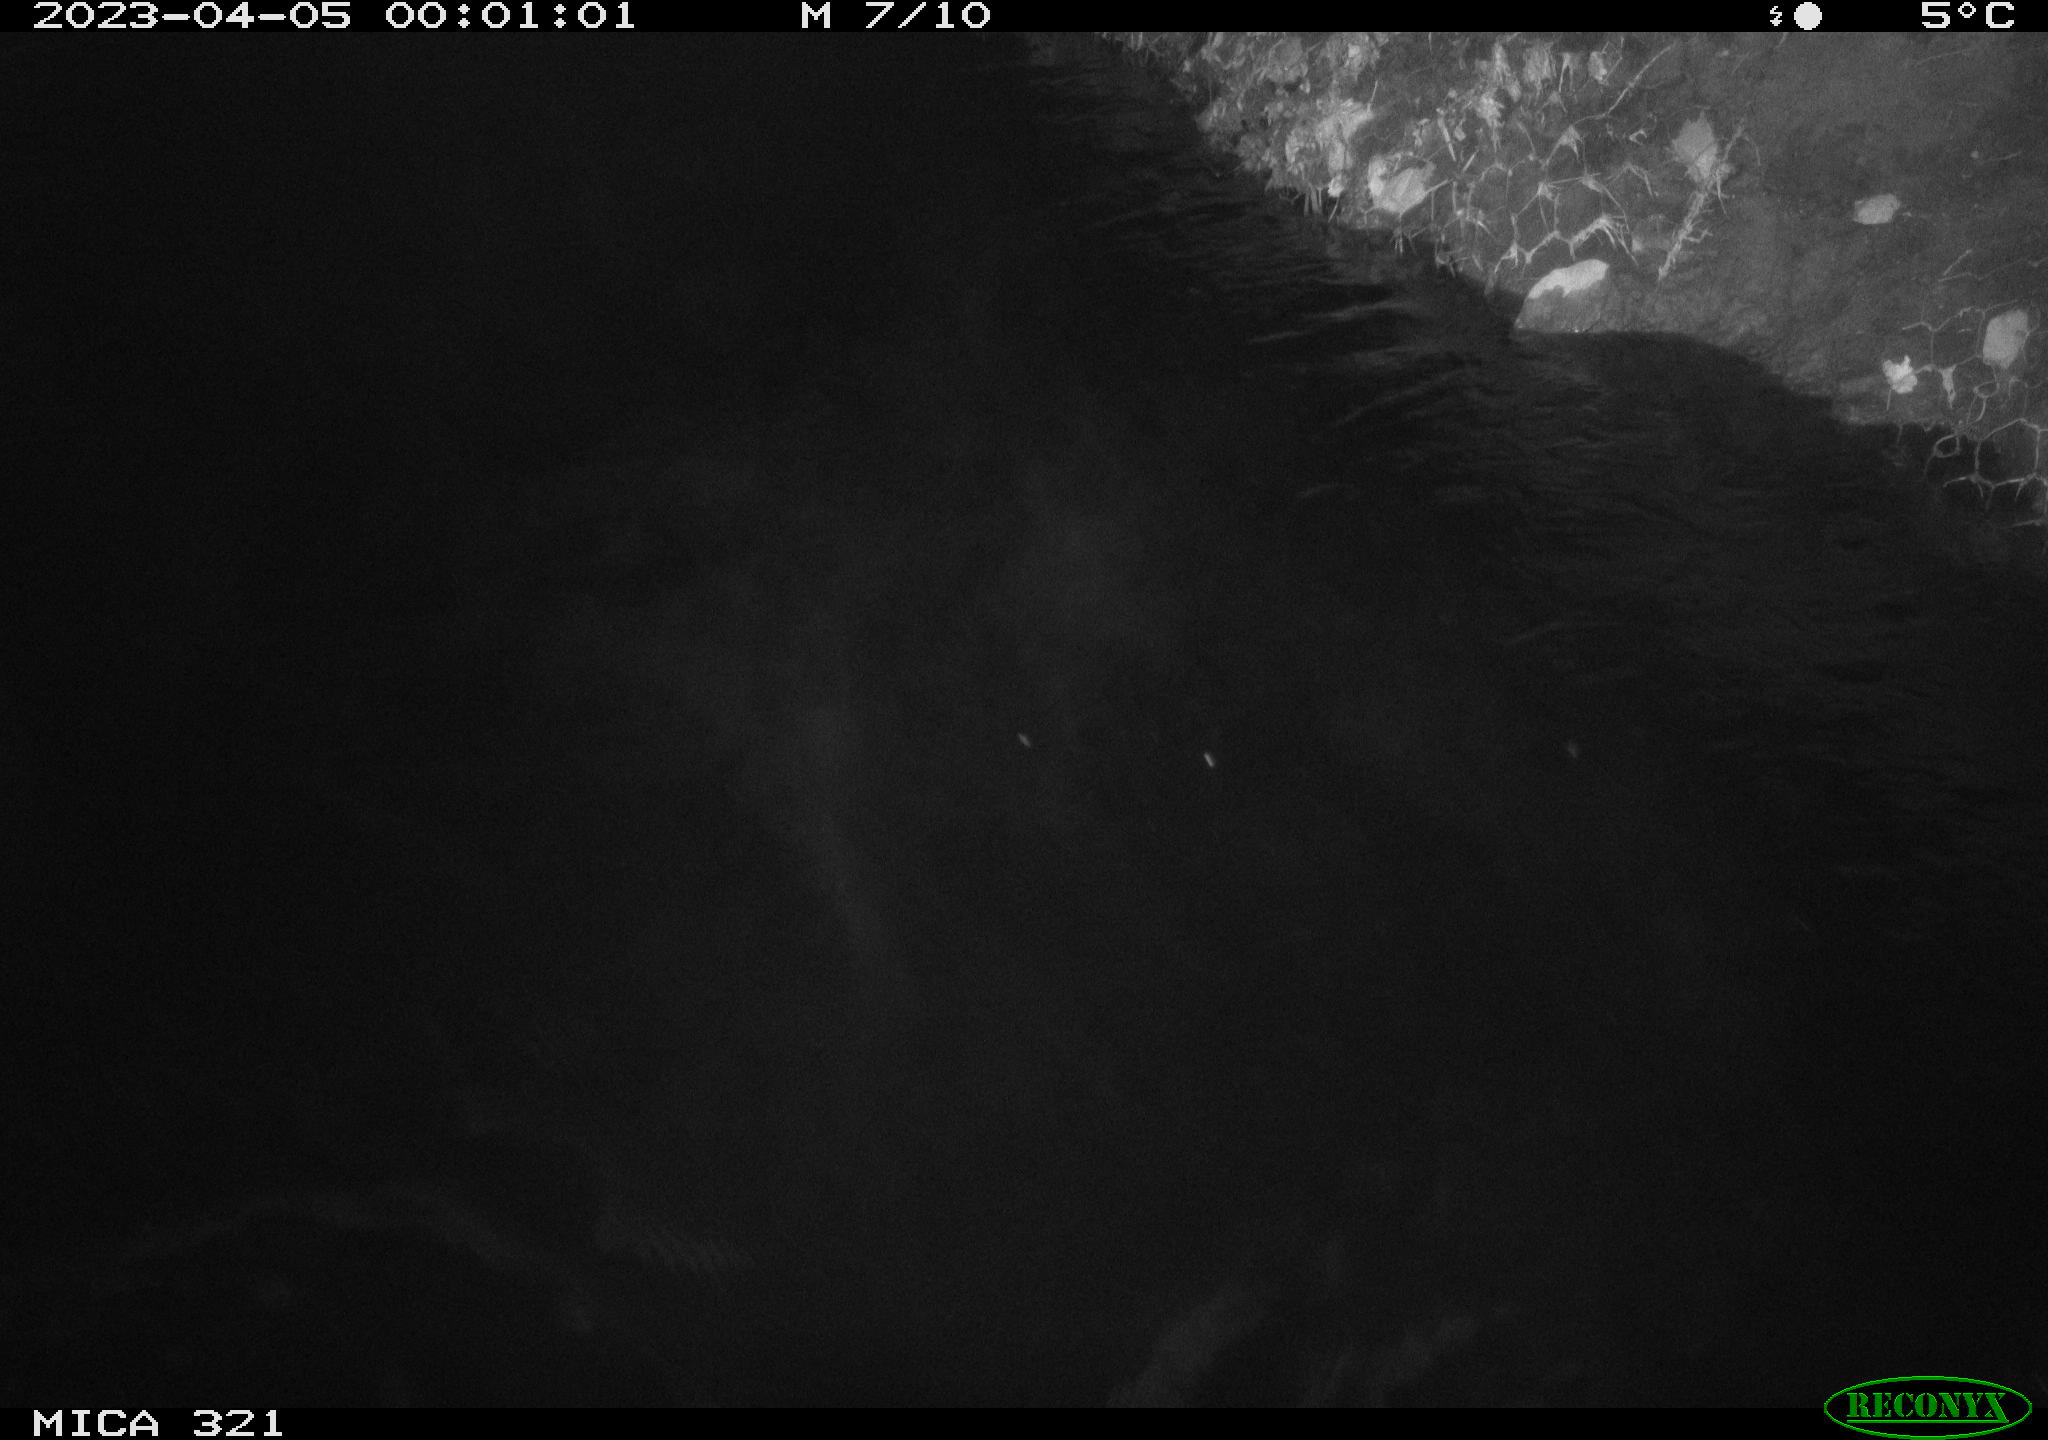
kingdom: Animalia
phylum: Chordata
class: Aves
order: Anseriformes
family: Anatidae
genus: Anas
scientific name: Anas
